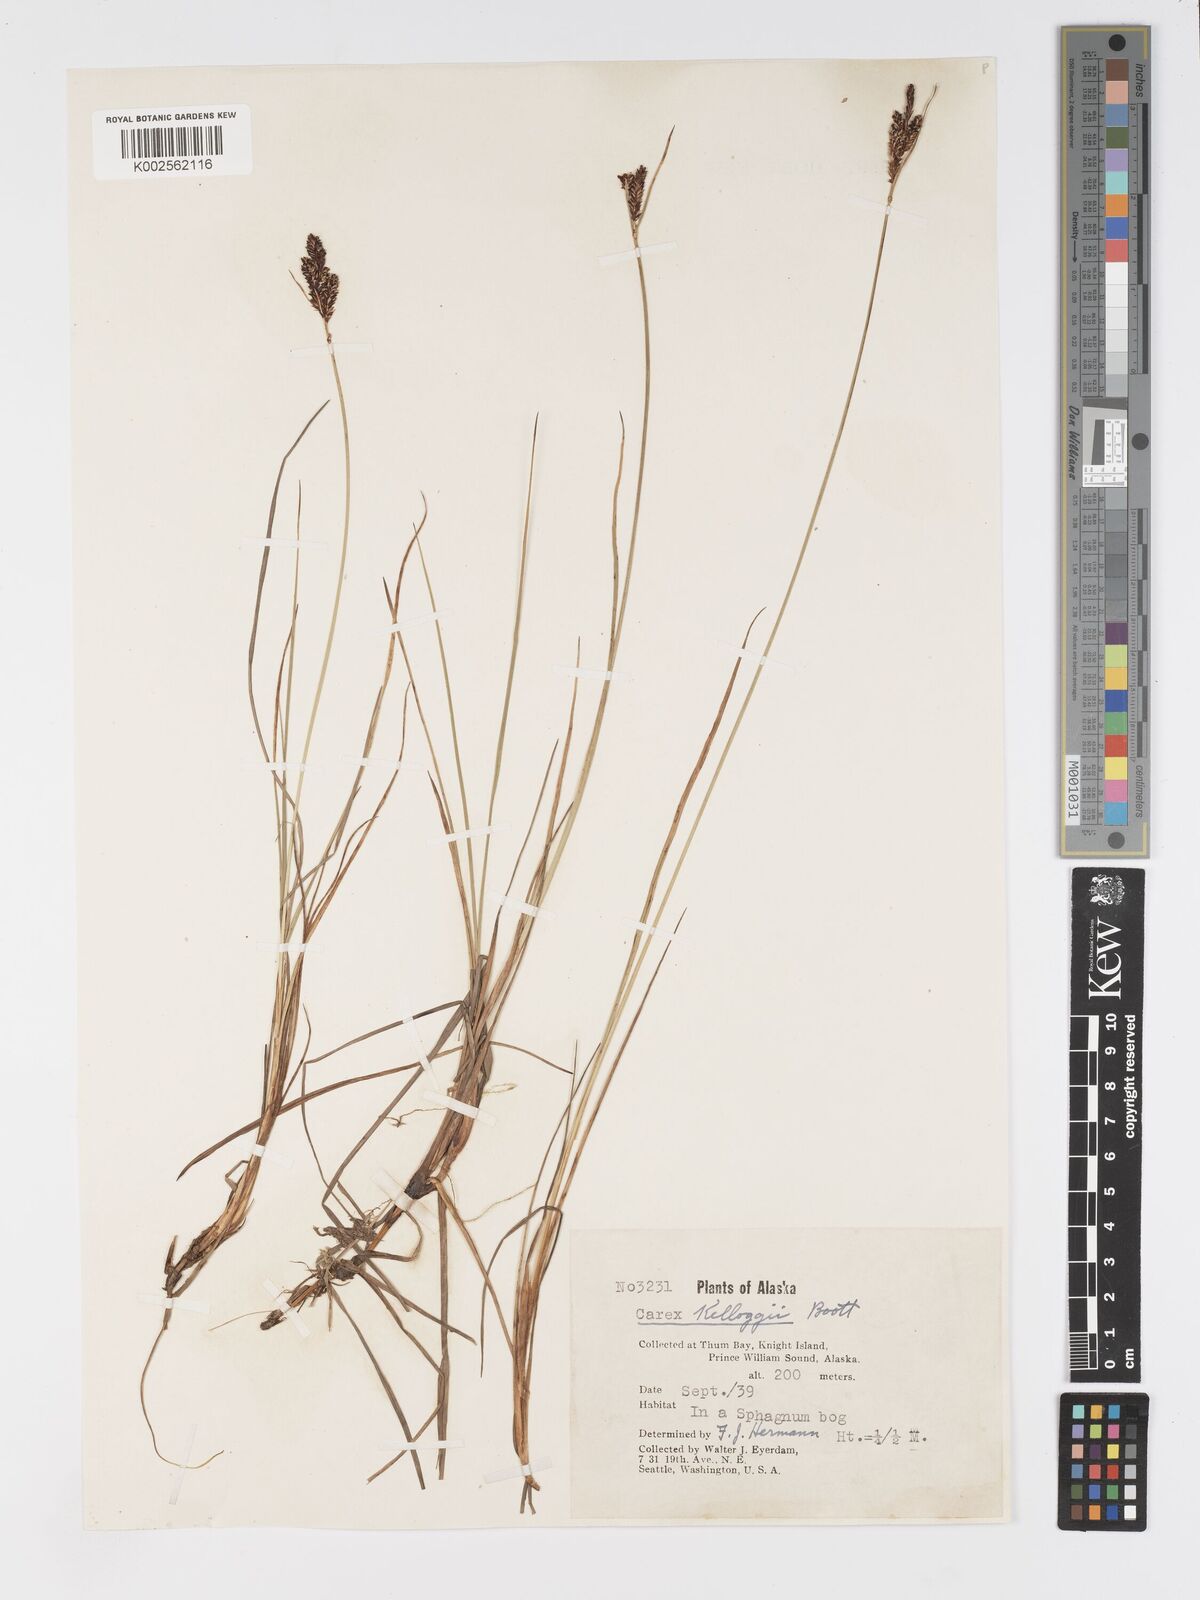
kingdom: Plantae
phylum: Tracheophyta
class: Liliopsida
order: Poales
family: Cyperaceae
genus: Carex
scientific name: Carex kelloggii
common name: Kellogg's sedge
